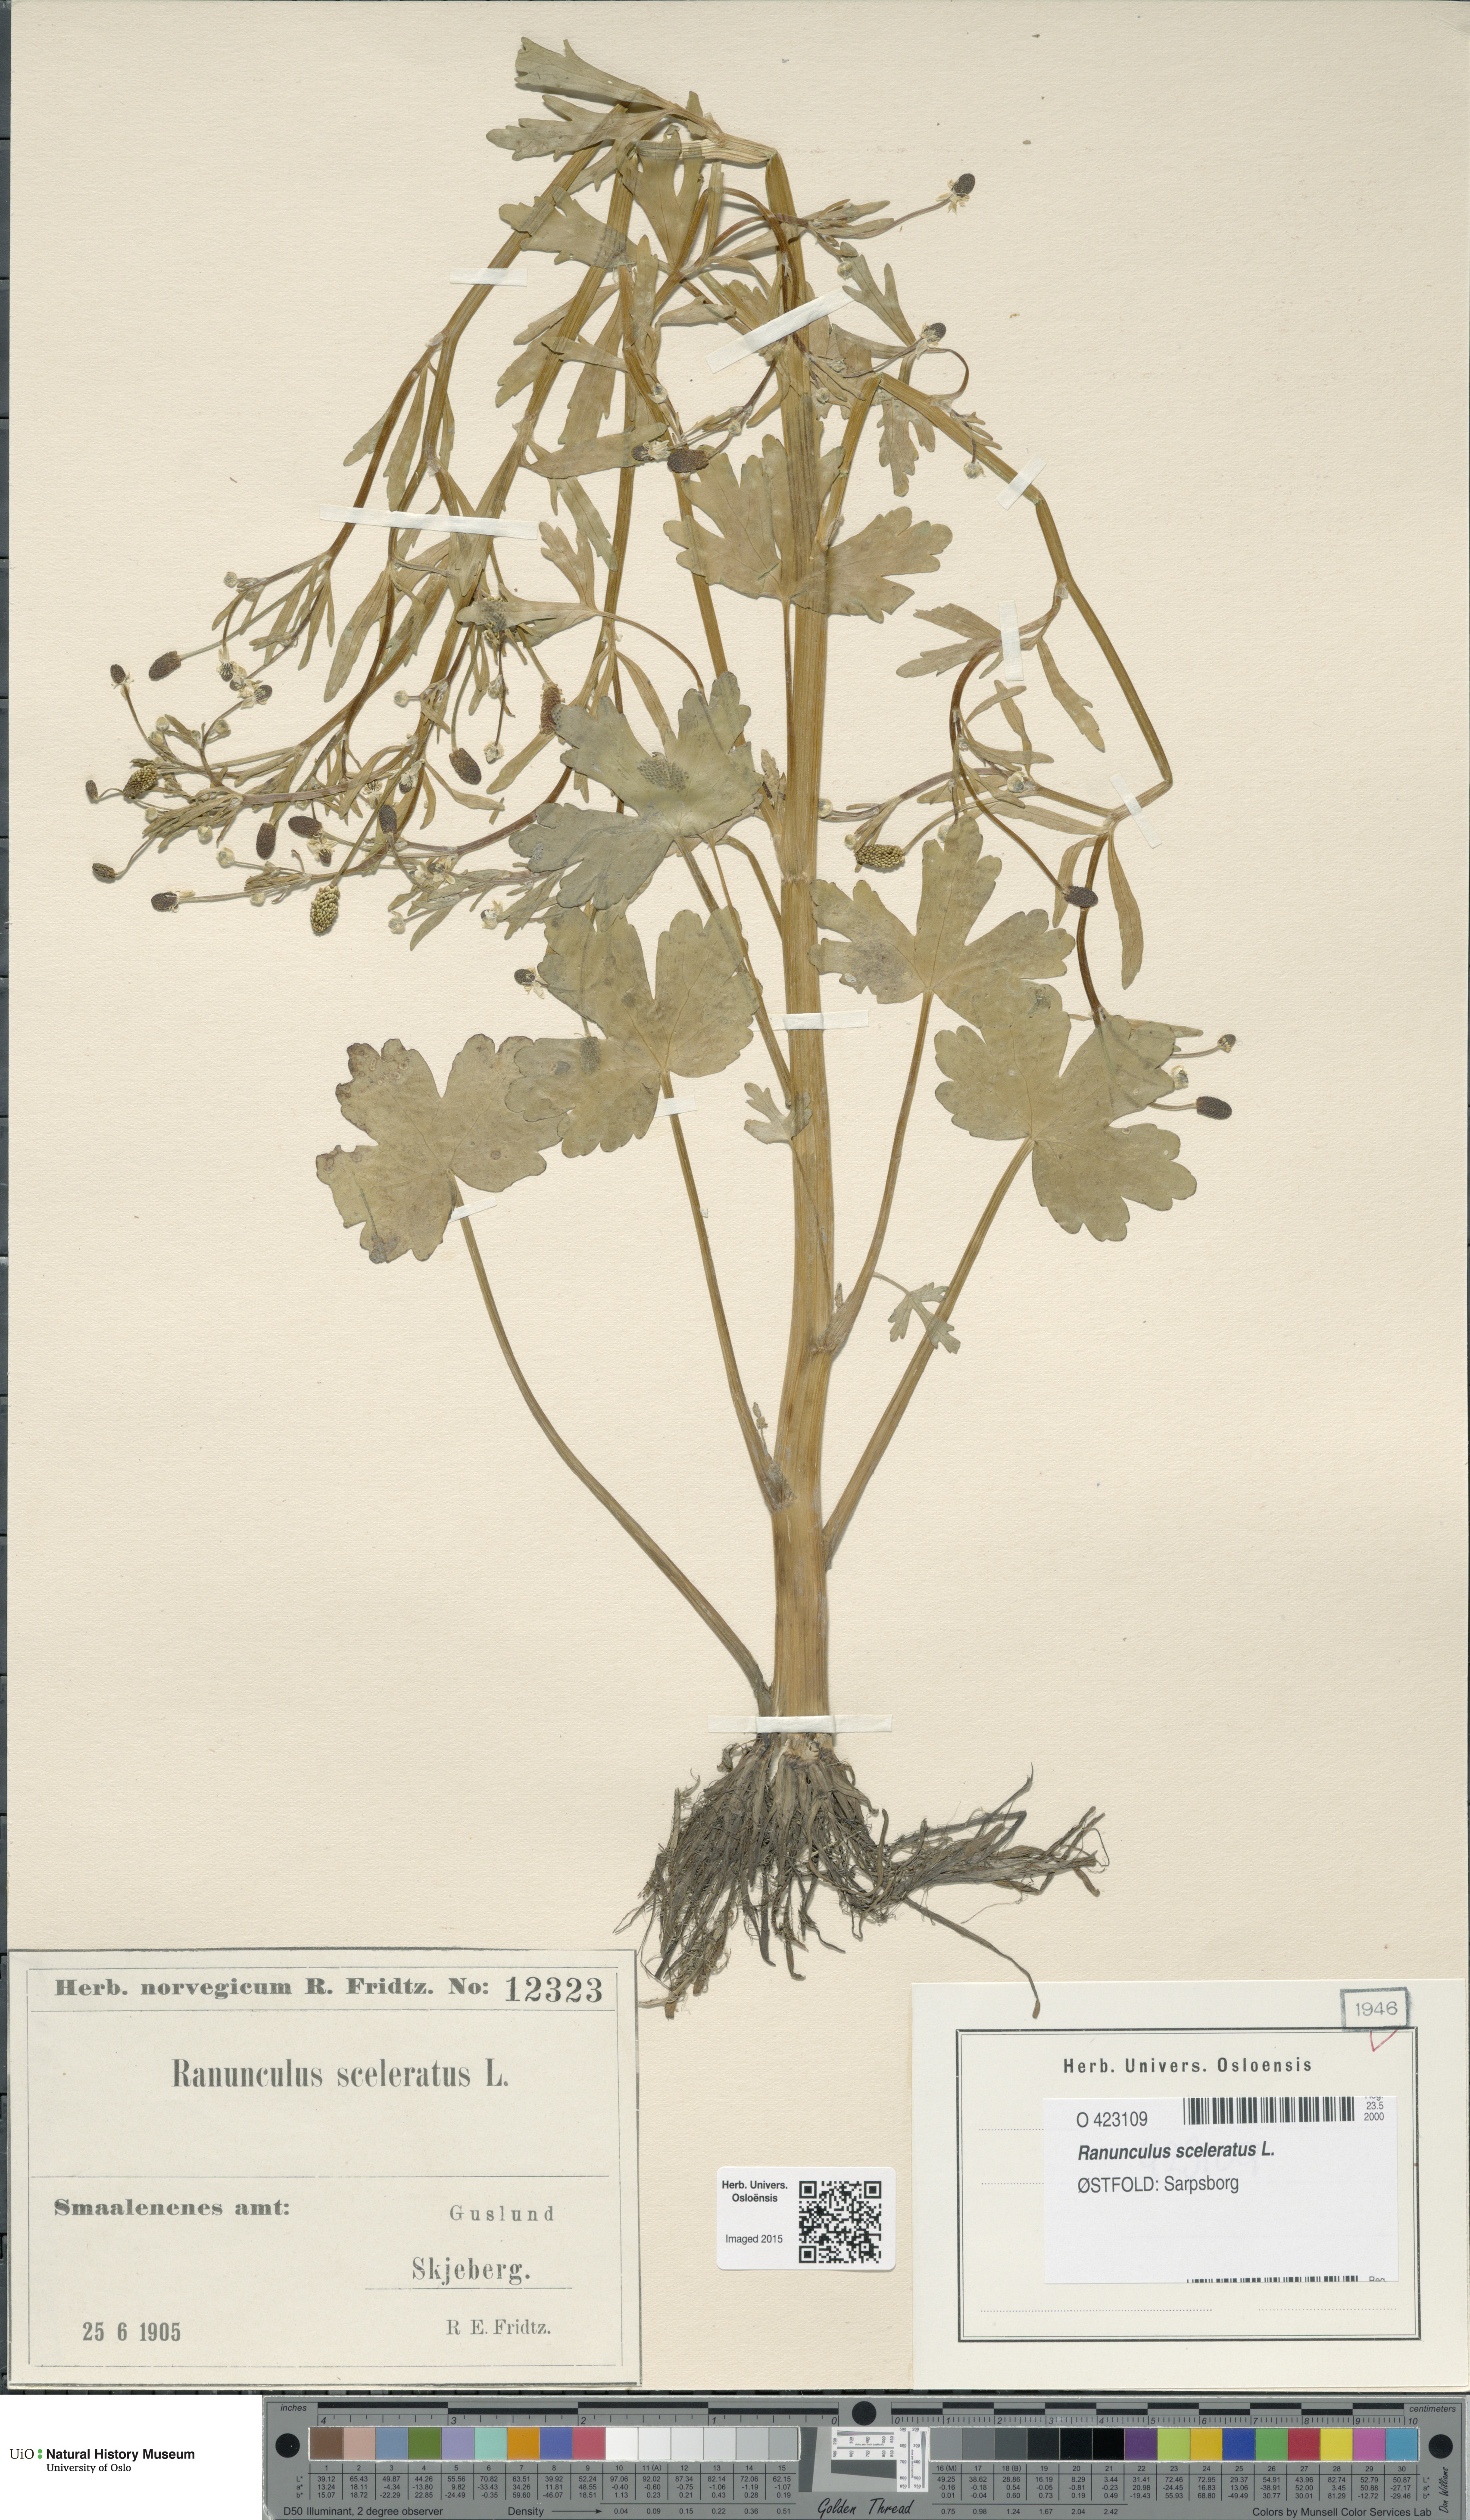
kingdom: Plantae
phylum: Tracheophyta
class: Magnoliopsida
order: Ranunculales
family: Ranunculaceae
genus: Ranunculus
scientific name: Ranunculus sceleratus
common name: Celery-leaved buttercup
